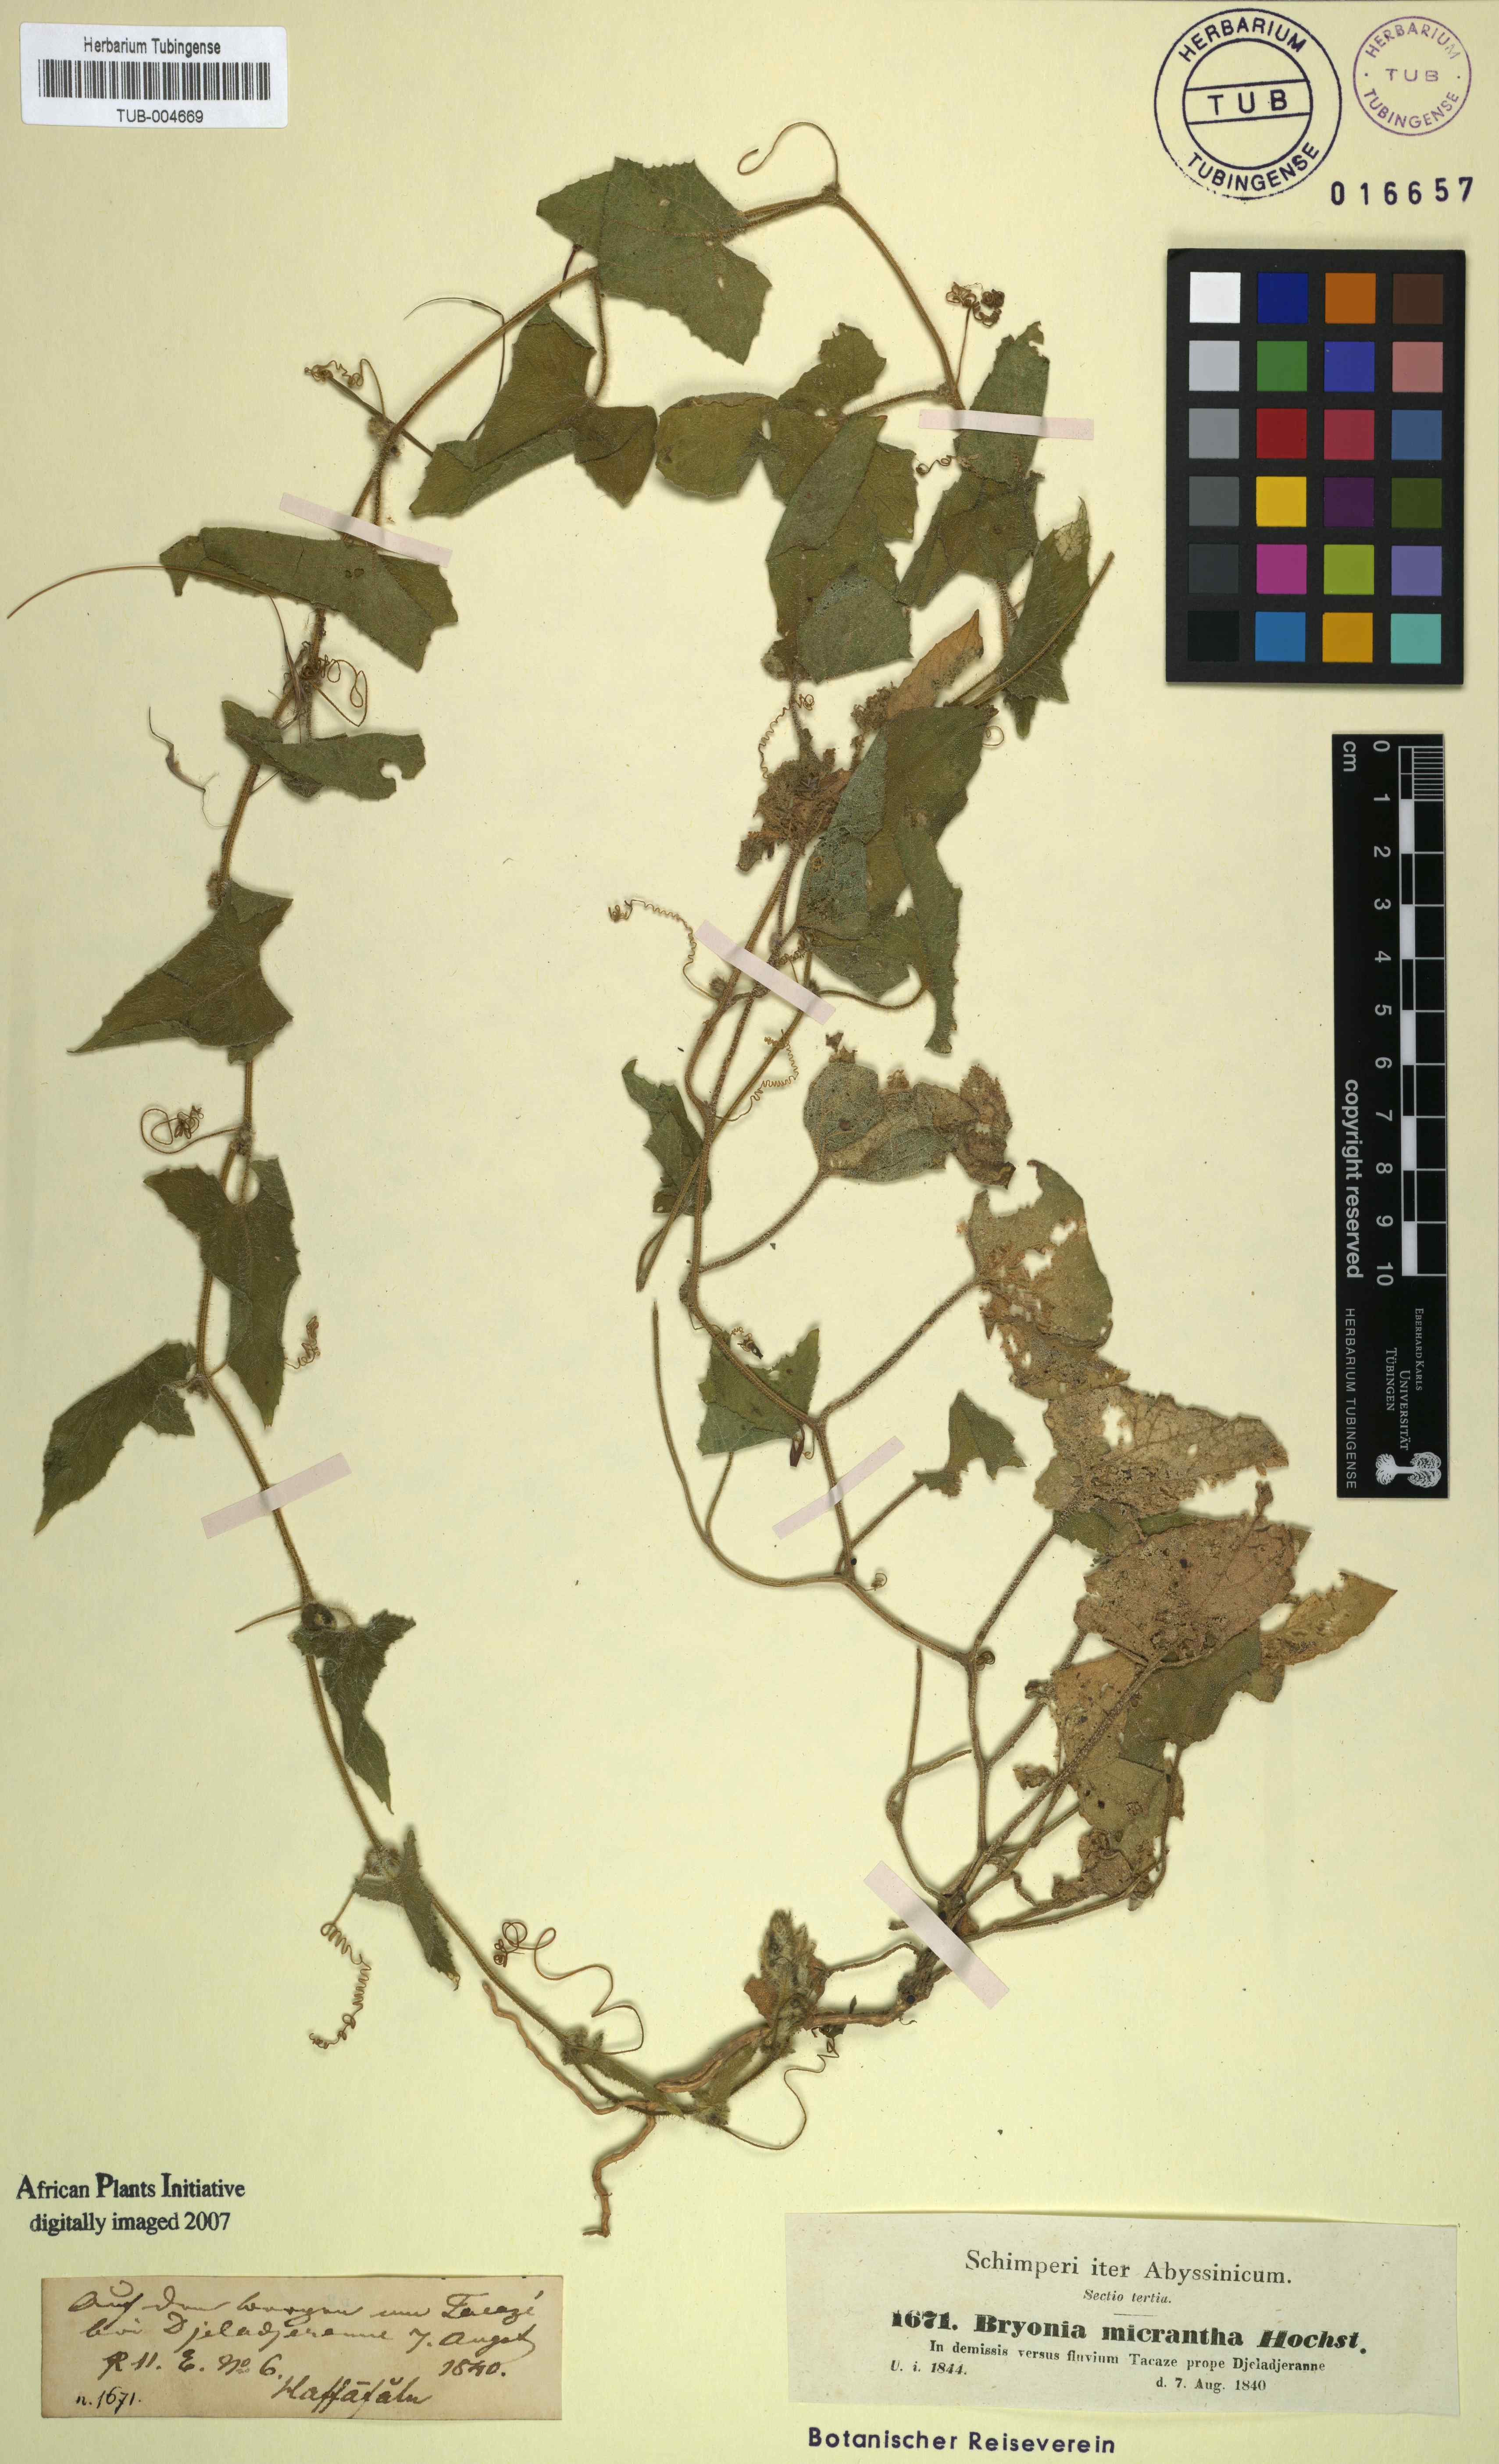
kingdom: Plantae
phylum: Tracheophyta
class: Magnoliopsida
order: Cucurbitales
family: Cucurbitaceae
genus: Cucumis
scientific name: Cucumis maderaspatanus
